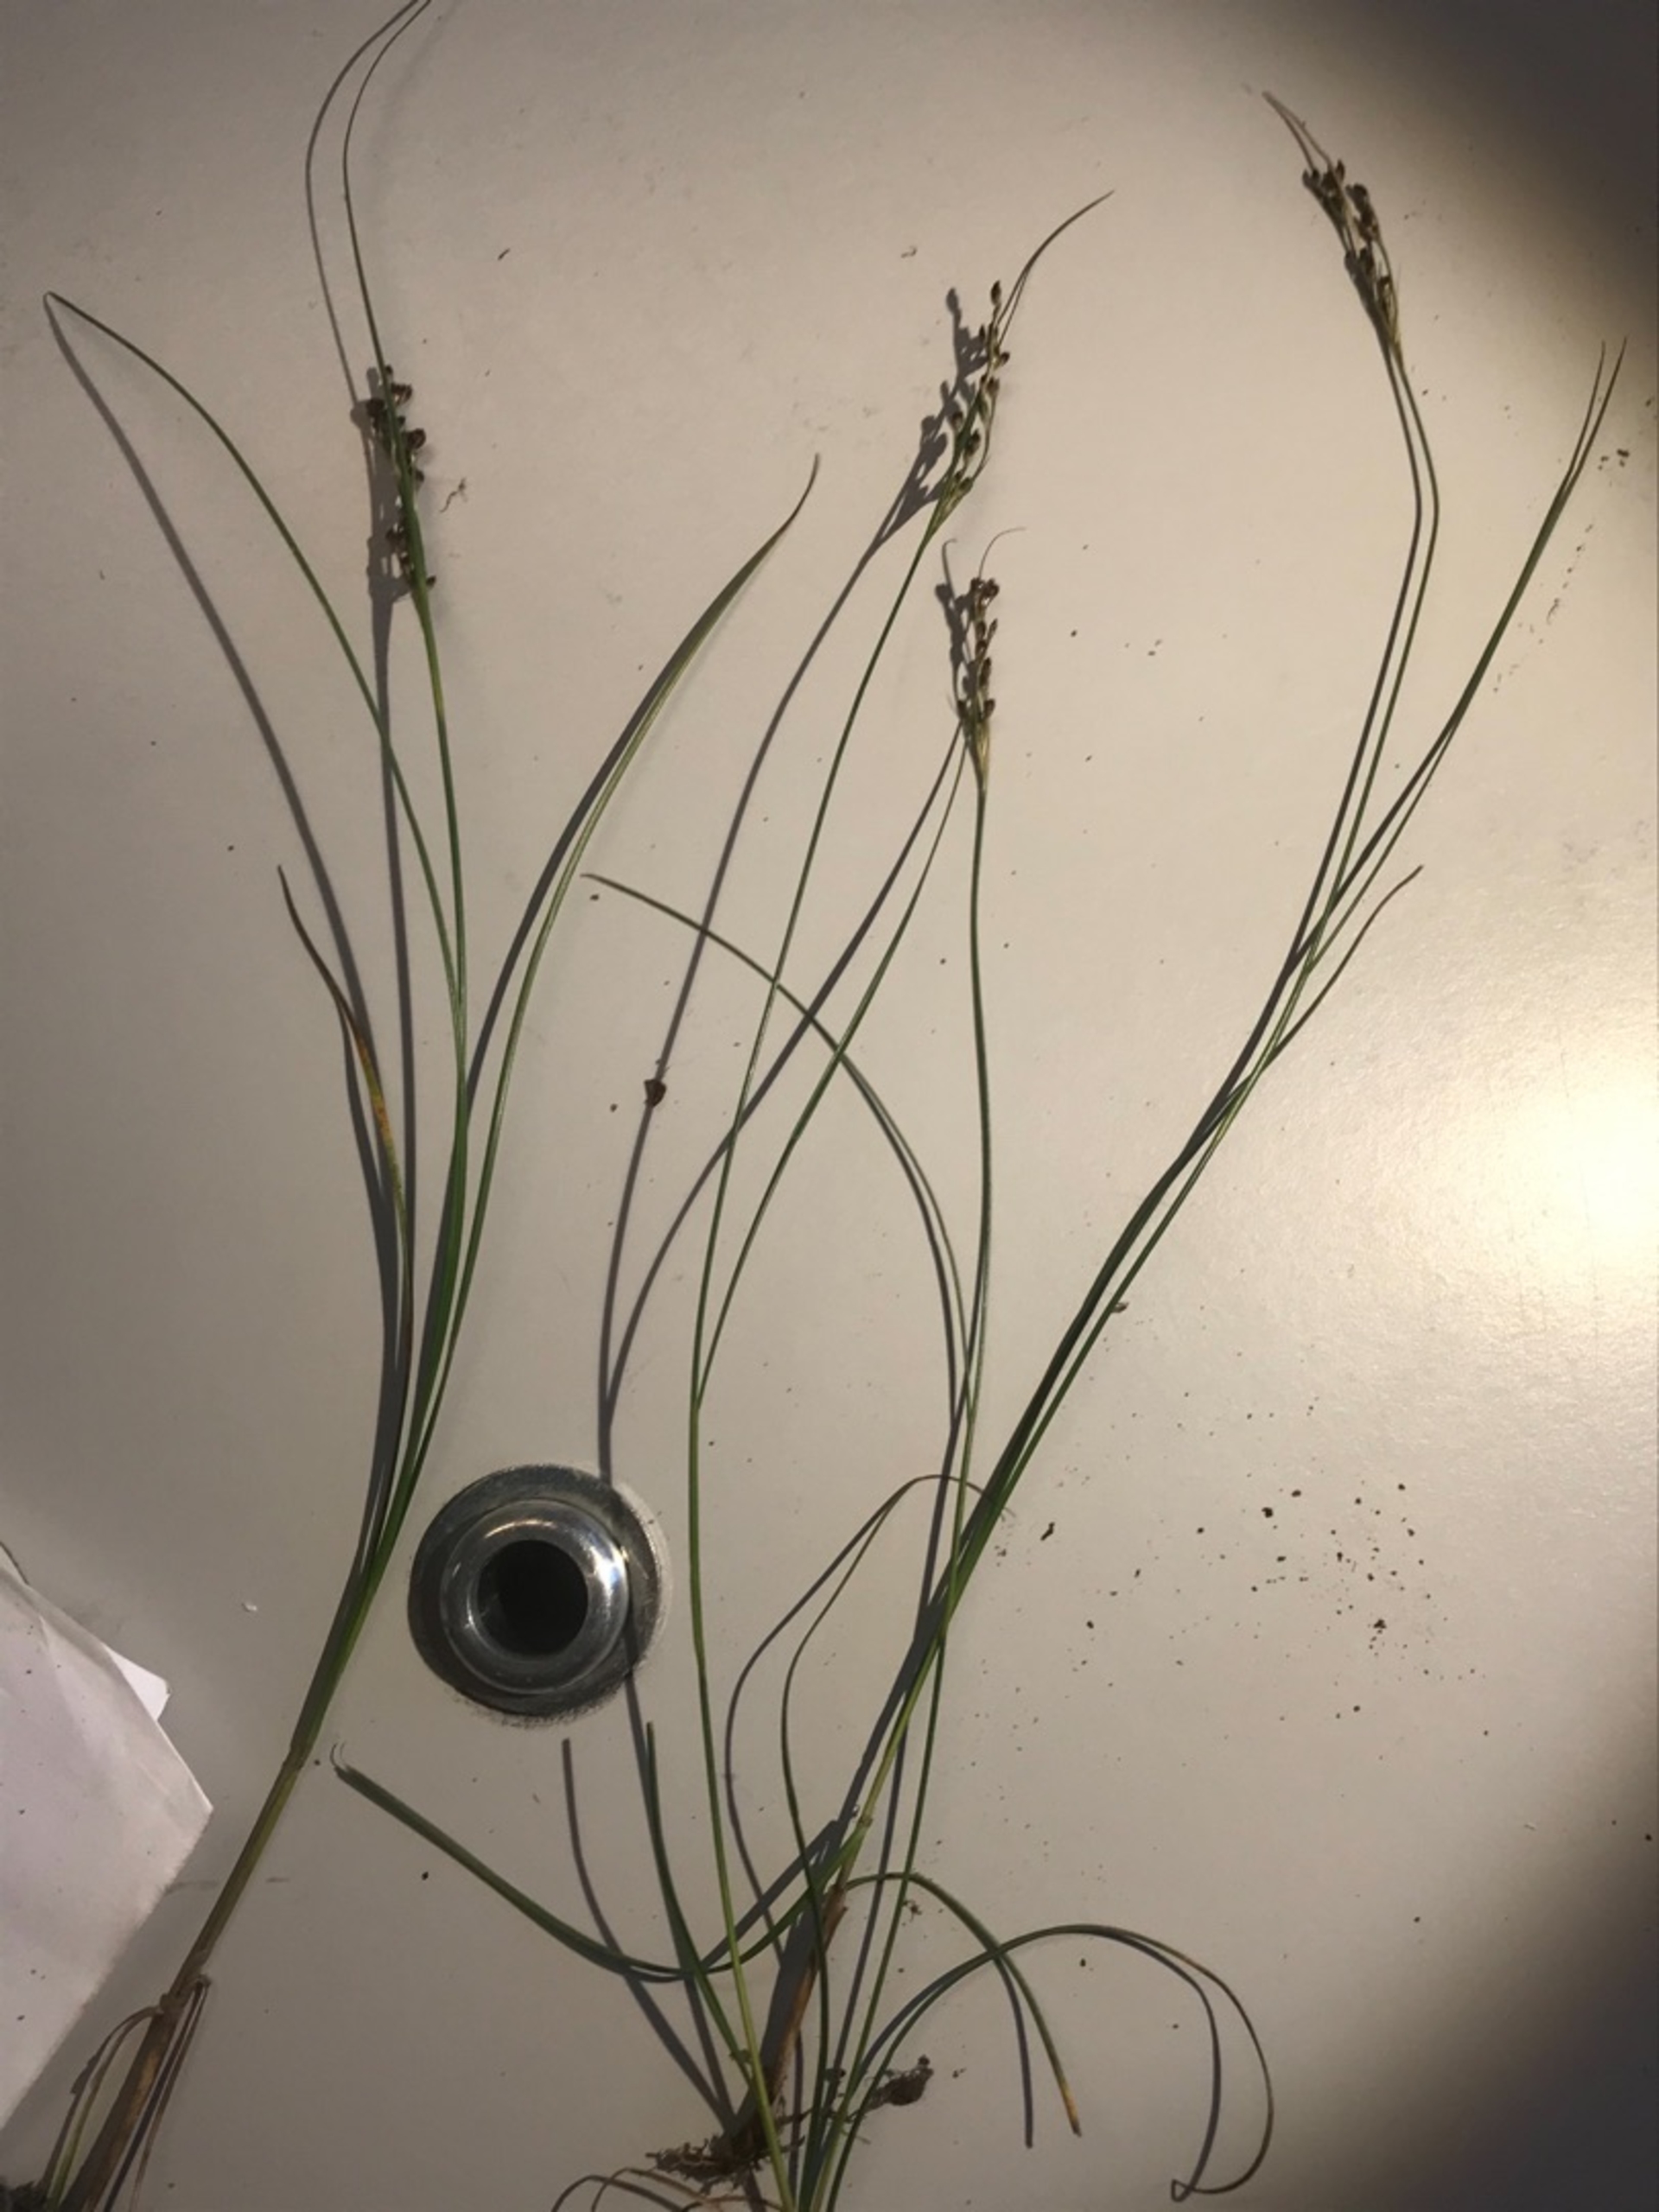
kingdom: Plantae
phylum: Tracheophyta
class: Liliopsida
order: Poales
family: Juncaceae
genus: Juncus
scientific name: Juncus gerardi
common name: Harril
